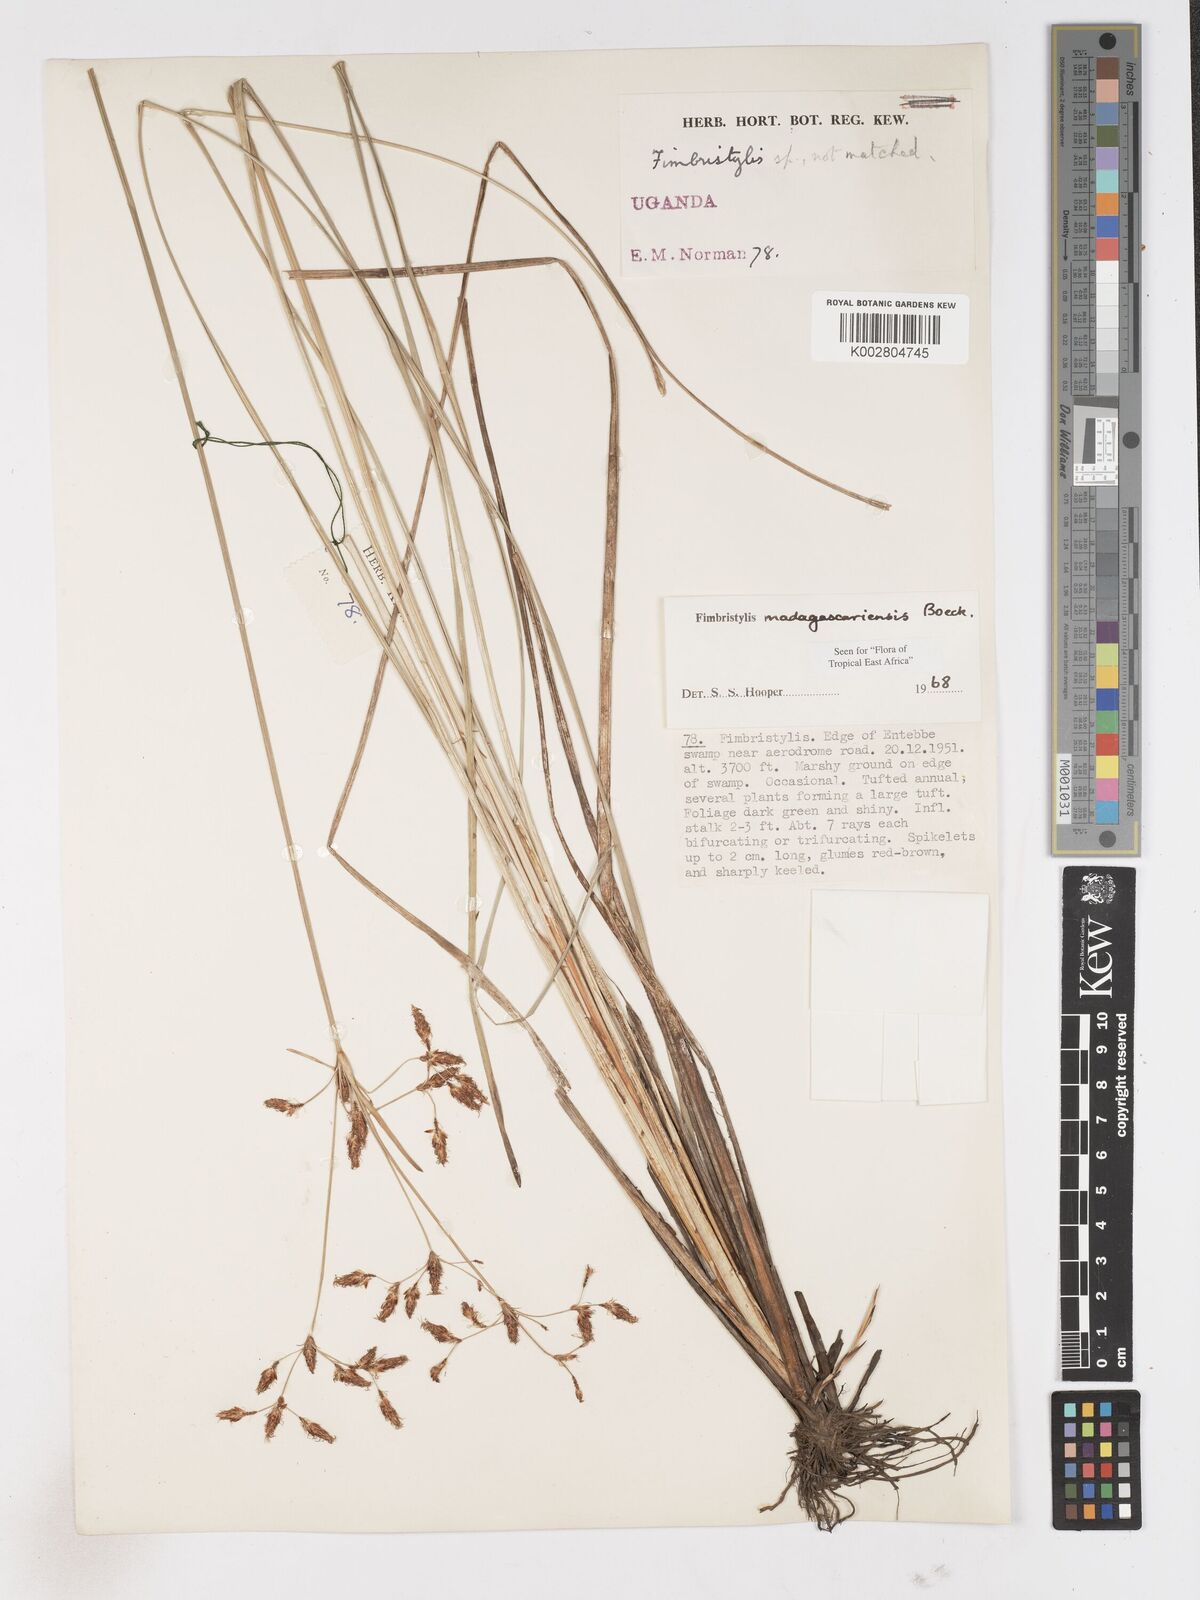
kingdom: Plantae
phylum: Tracheophyta
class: Liliopsida
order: Poales
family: Cyperaceae
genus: Fimbristylis
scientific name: Fimbristylis madagascariensis
